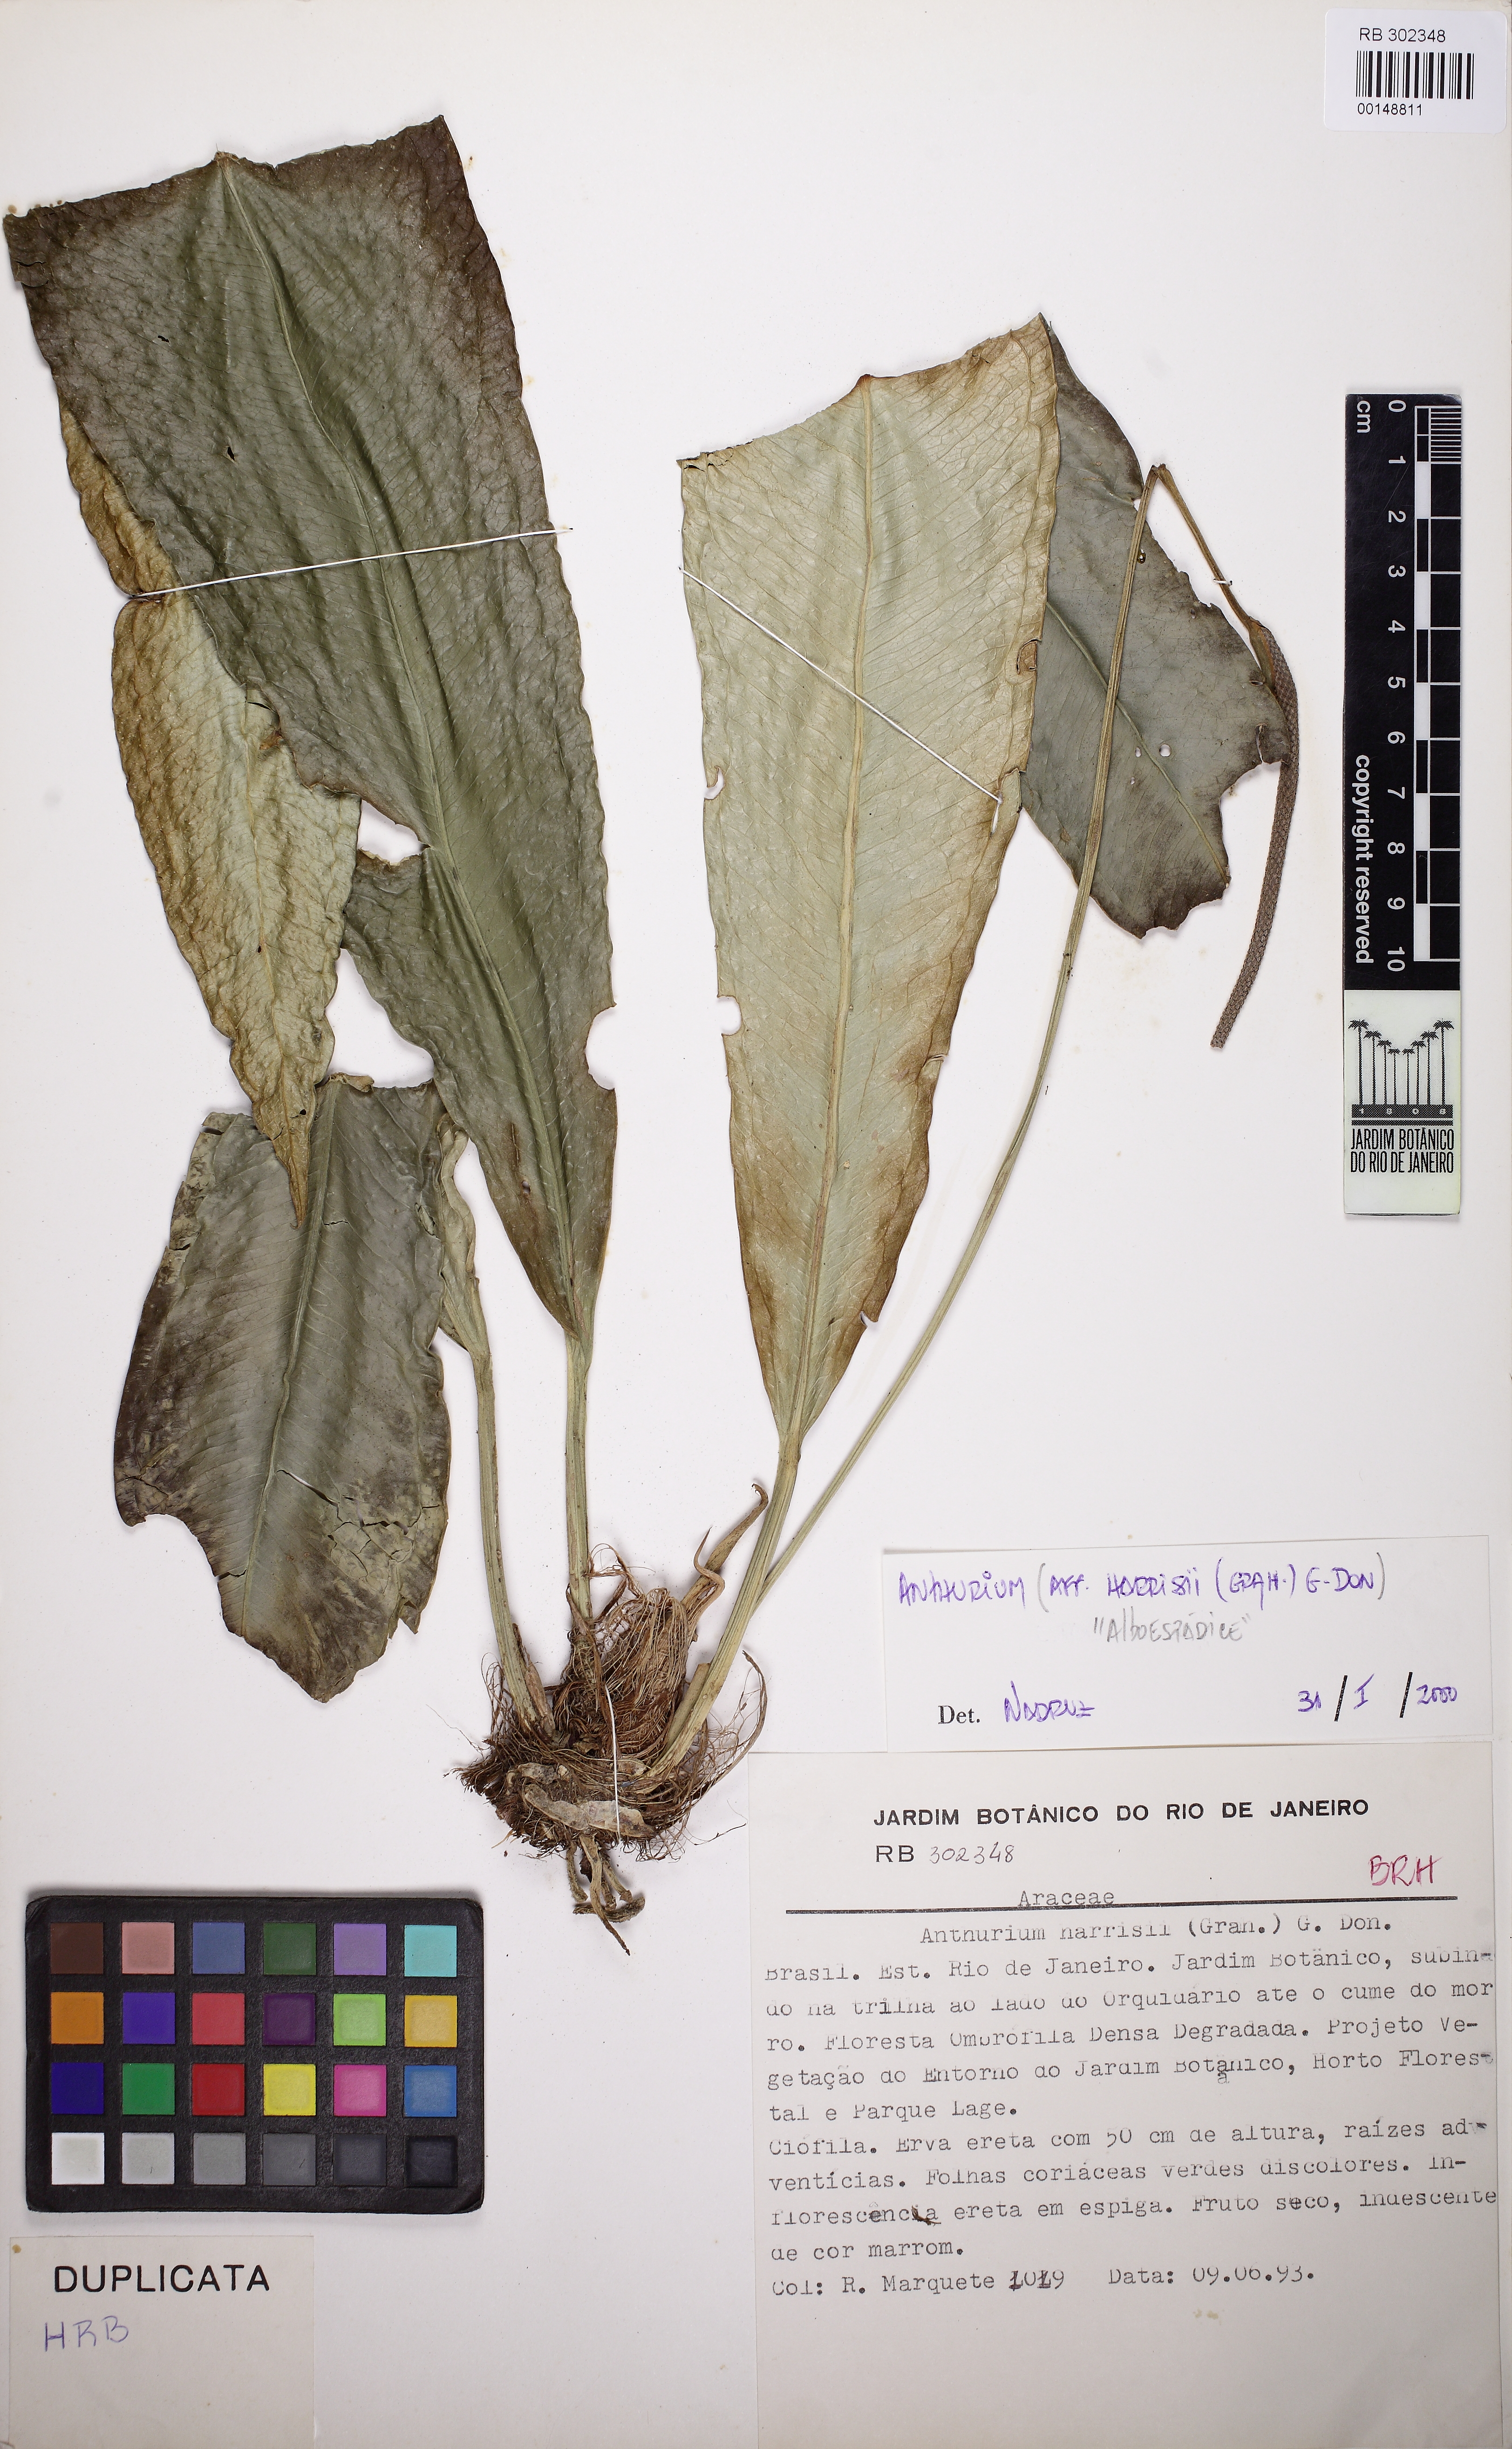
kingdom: Plantae
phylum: Tracheophyta
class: Liliopsida
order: Alismatales
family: Araceae
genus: Anthurium
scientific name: Anthurium comtum
